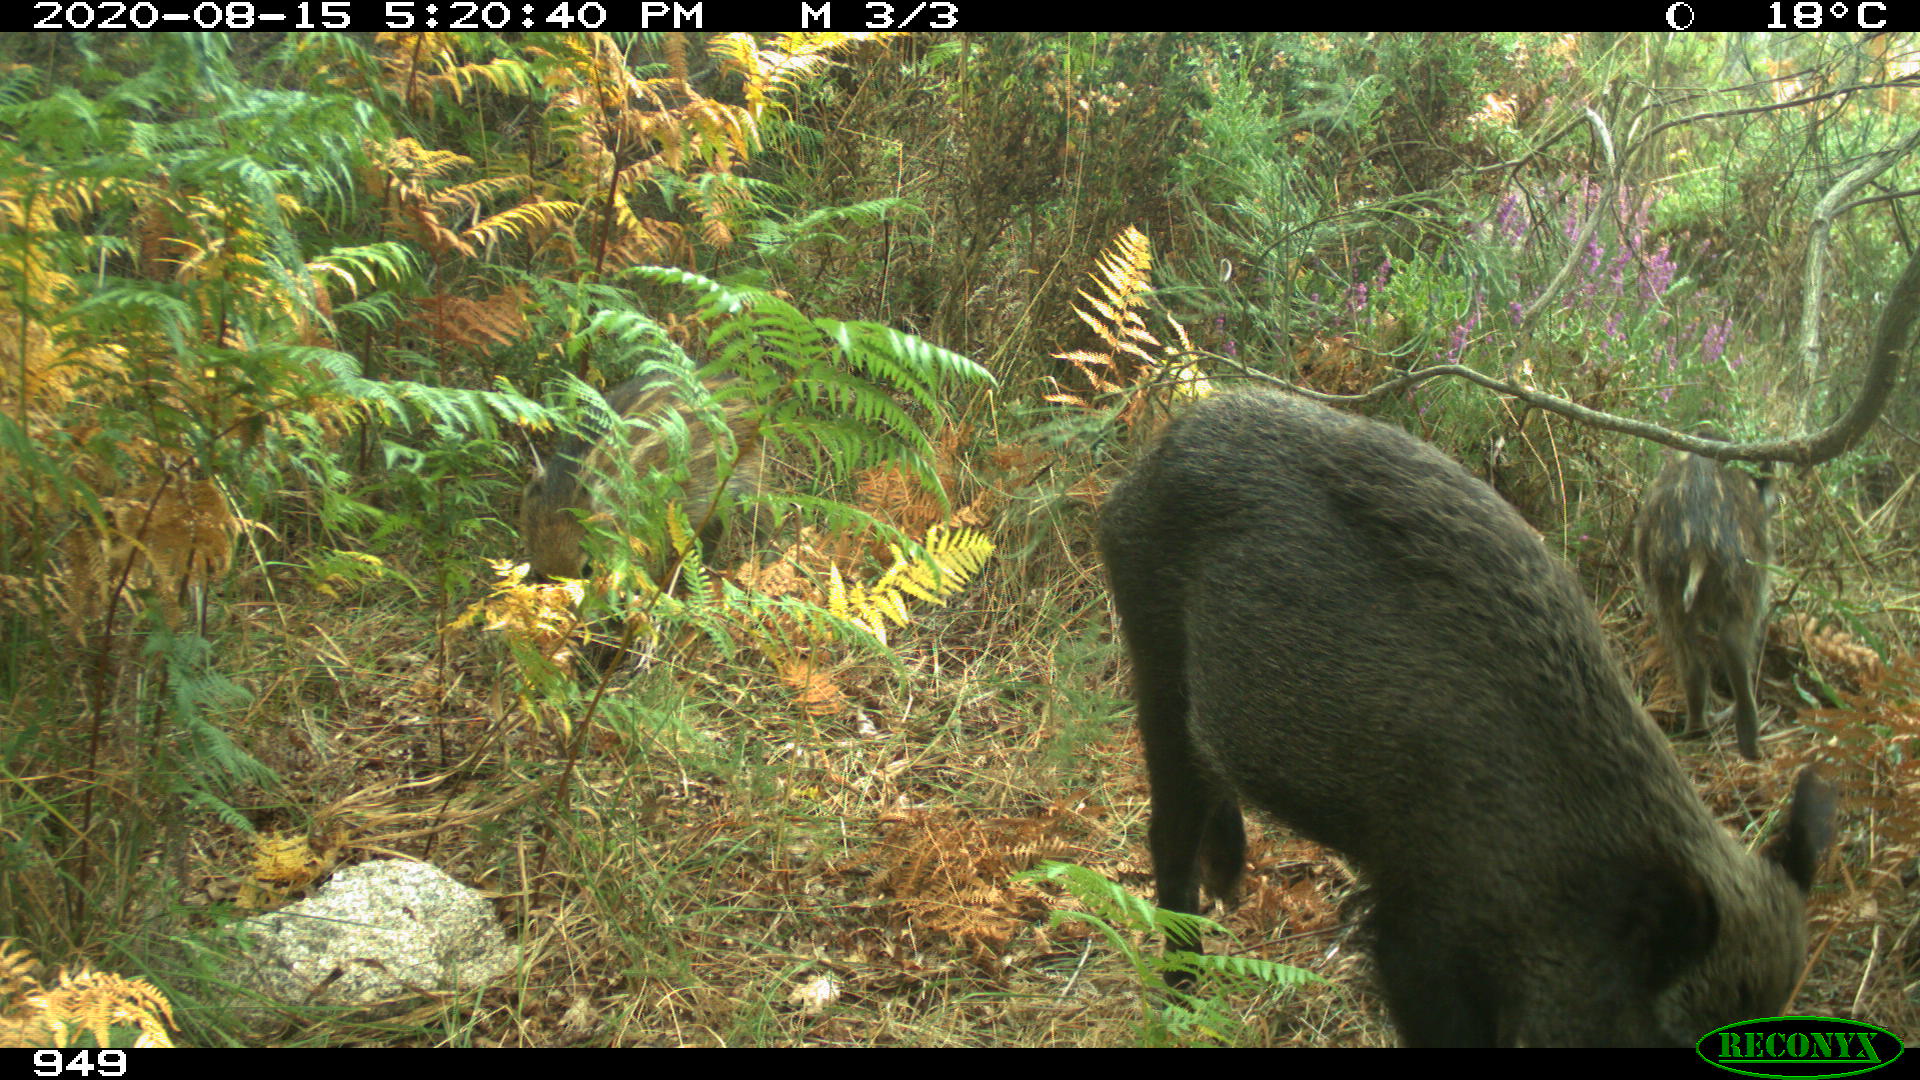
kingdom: Animalia
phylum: Chordata
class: Mammalia
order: Artiodactyla
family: Suidae
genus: Sus
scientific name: Sus scrofa
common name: Wild boar
